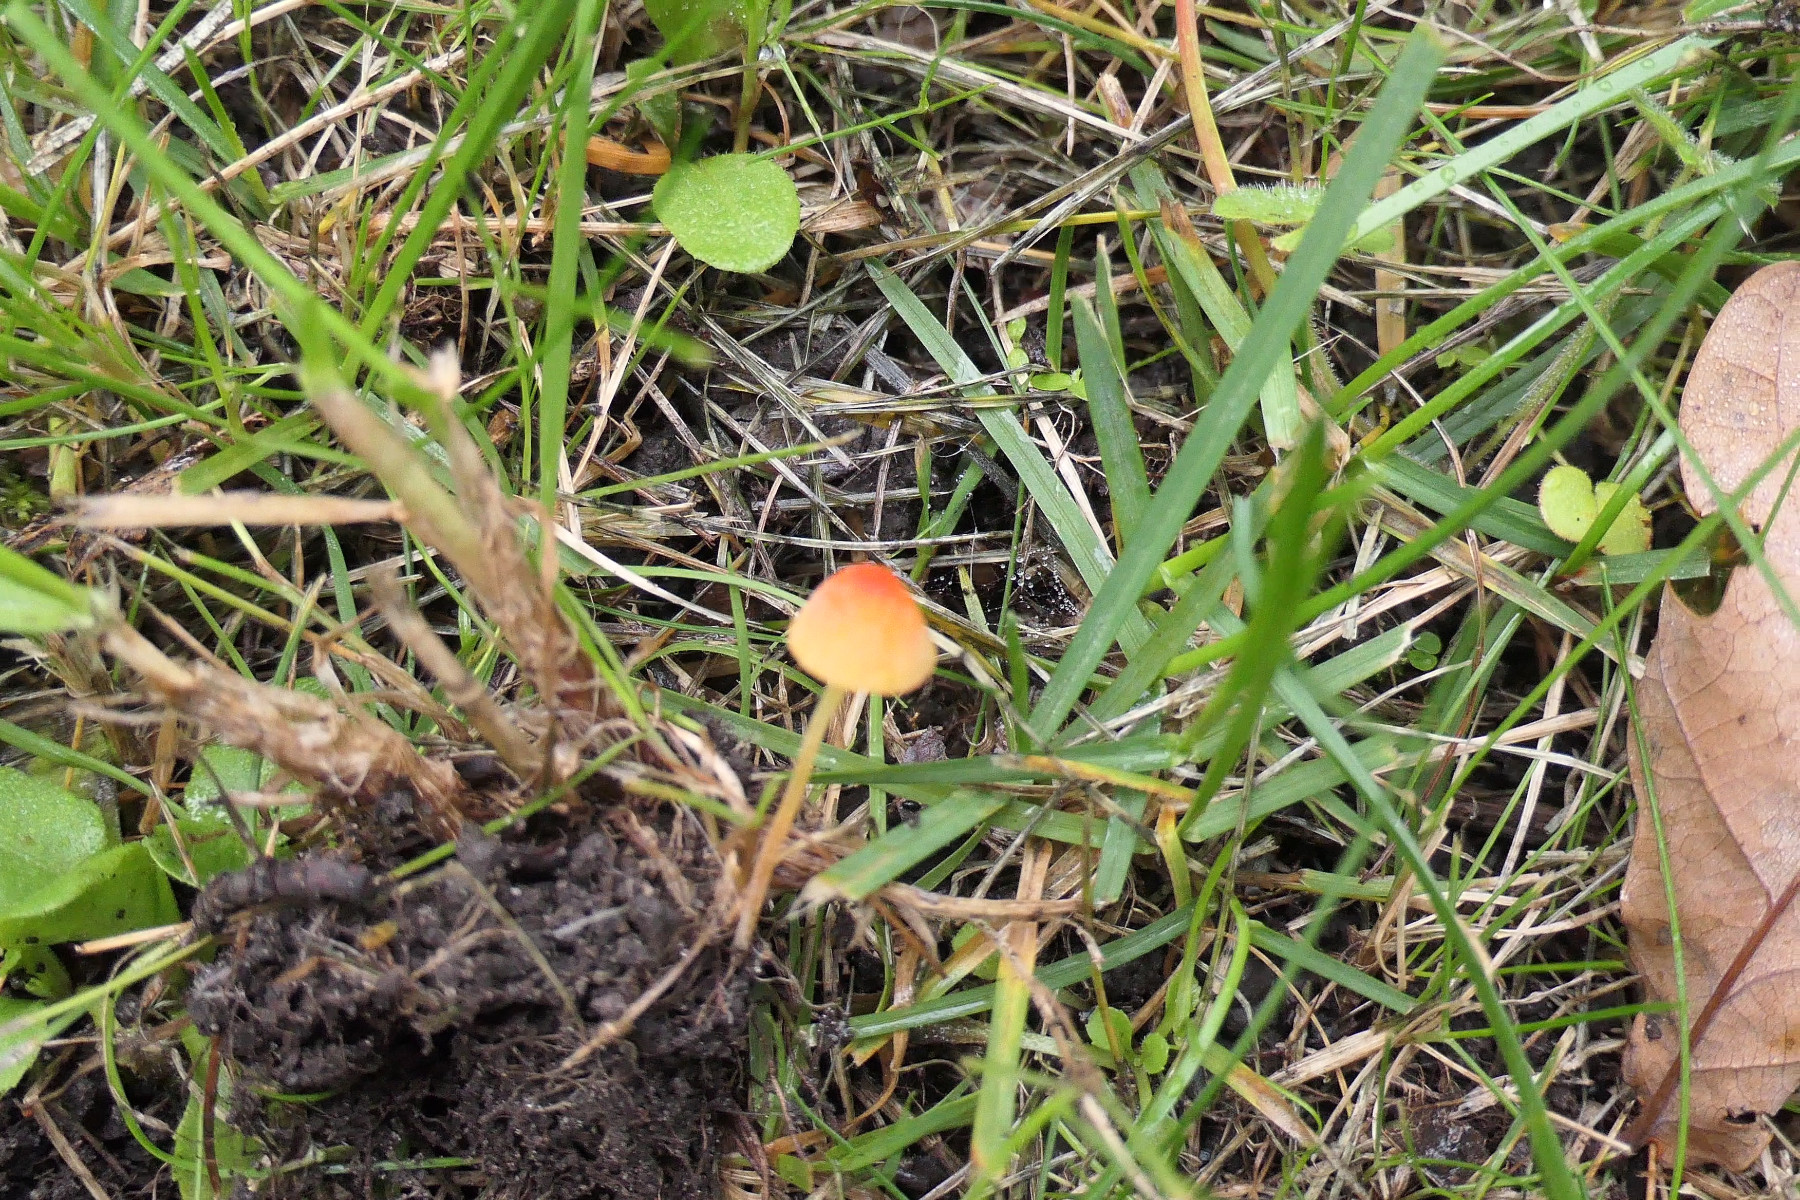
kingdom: Fungi
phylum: Basidiomycota
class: Agaricomycetes
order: Agaricales
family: Mycenaceae
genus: Mycena
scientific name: Mycena acicula
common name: orange huesvamp
